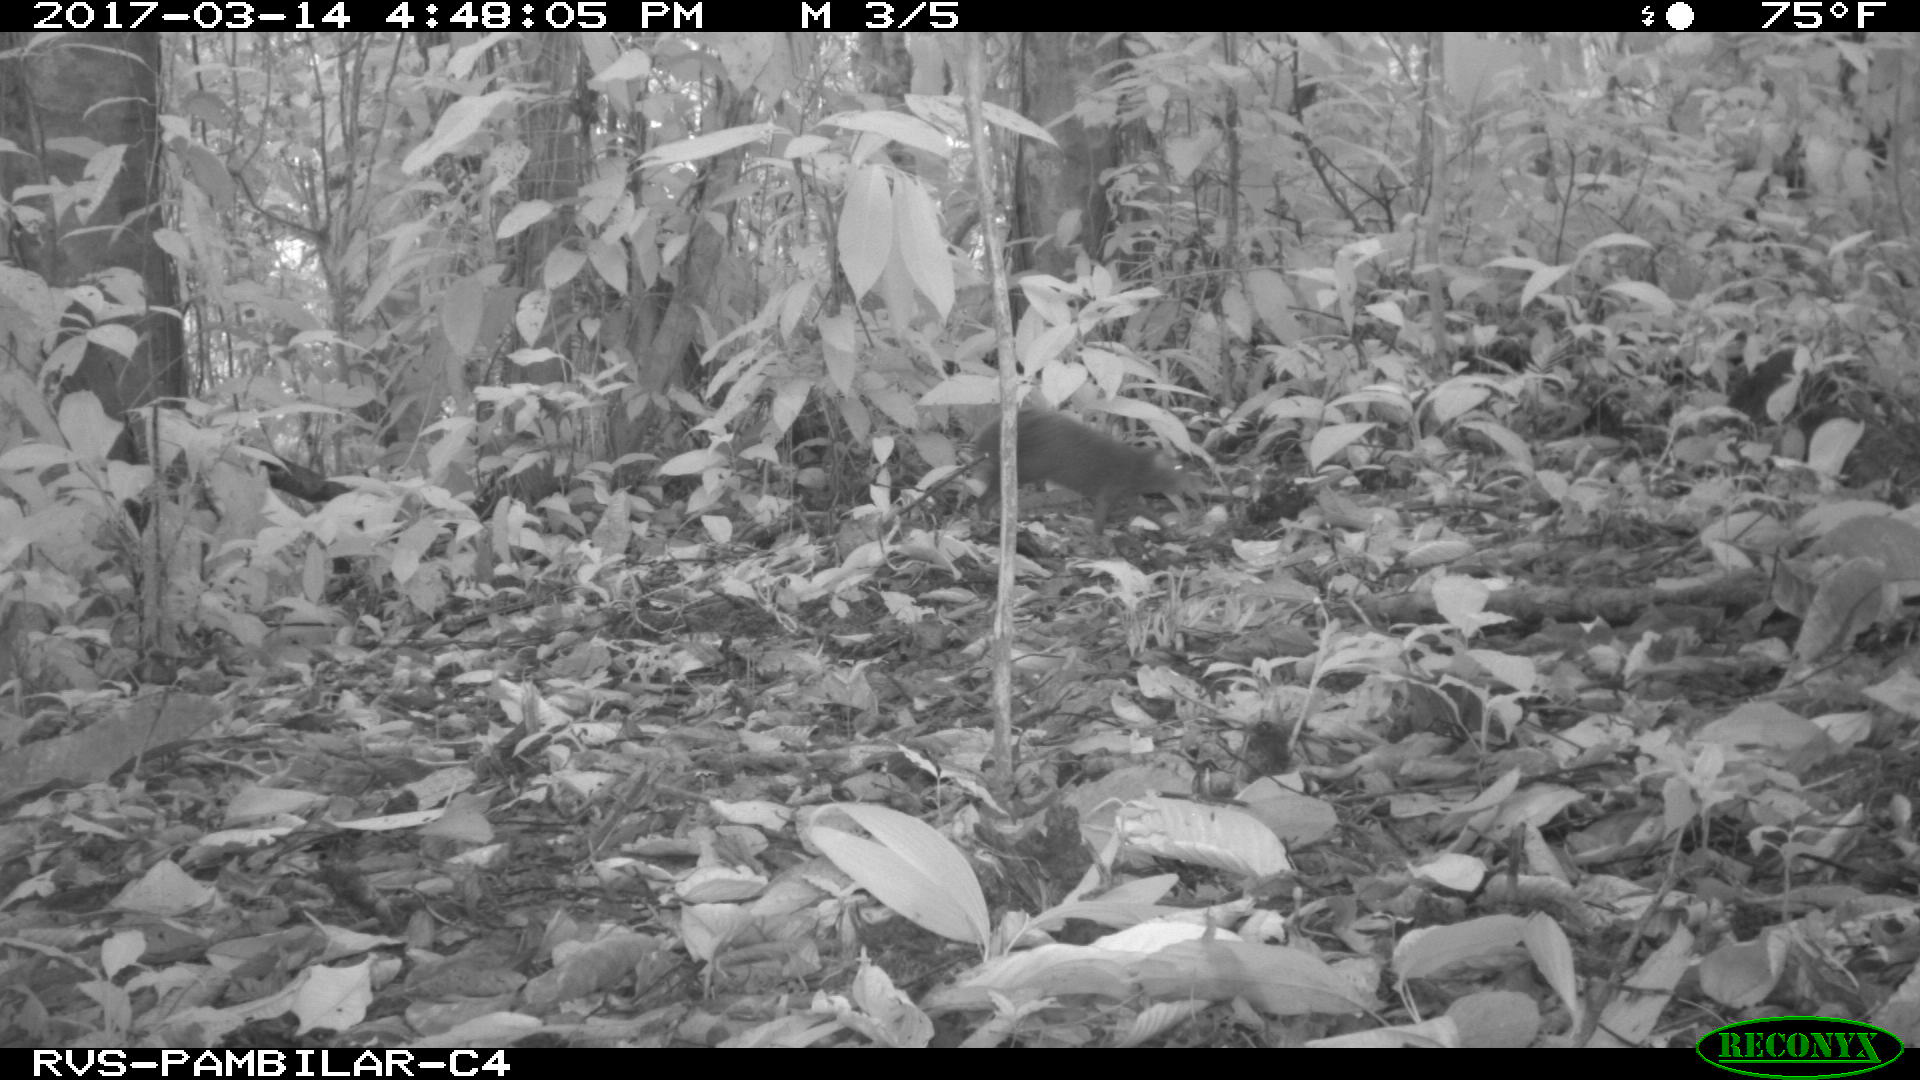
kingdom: Animalia
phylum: Chordata
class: Mammalia
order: Rodentia
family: Dasyproctidae
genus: Dasyprocta
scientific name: Dasyprocta punctata
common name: Central american agouti
